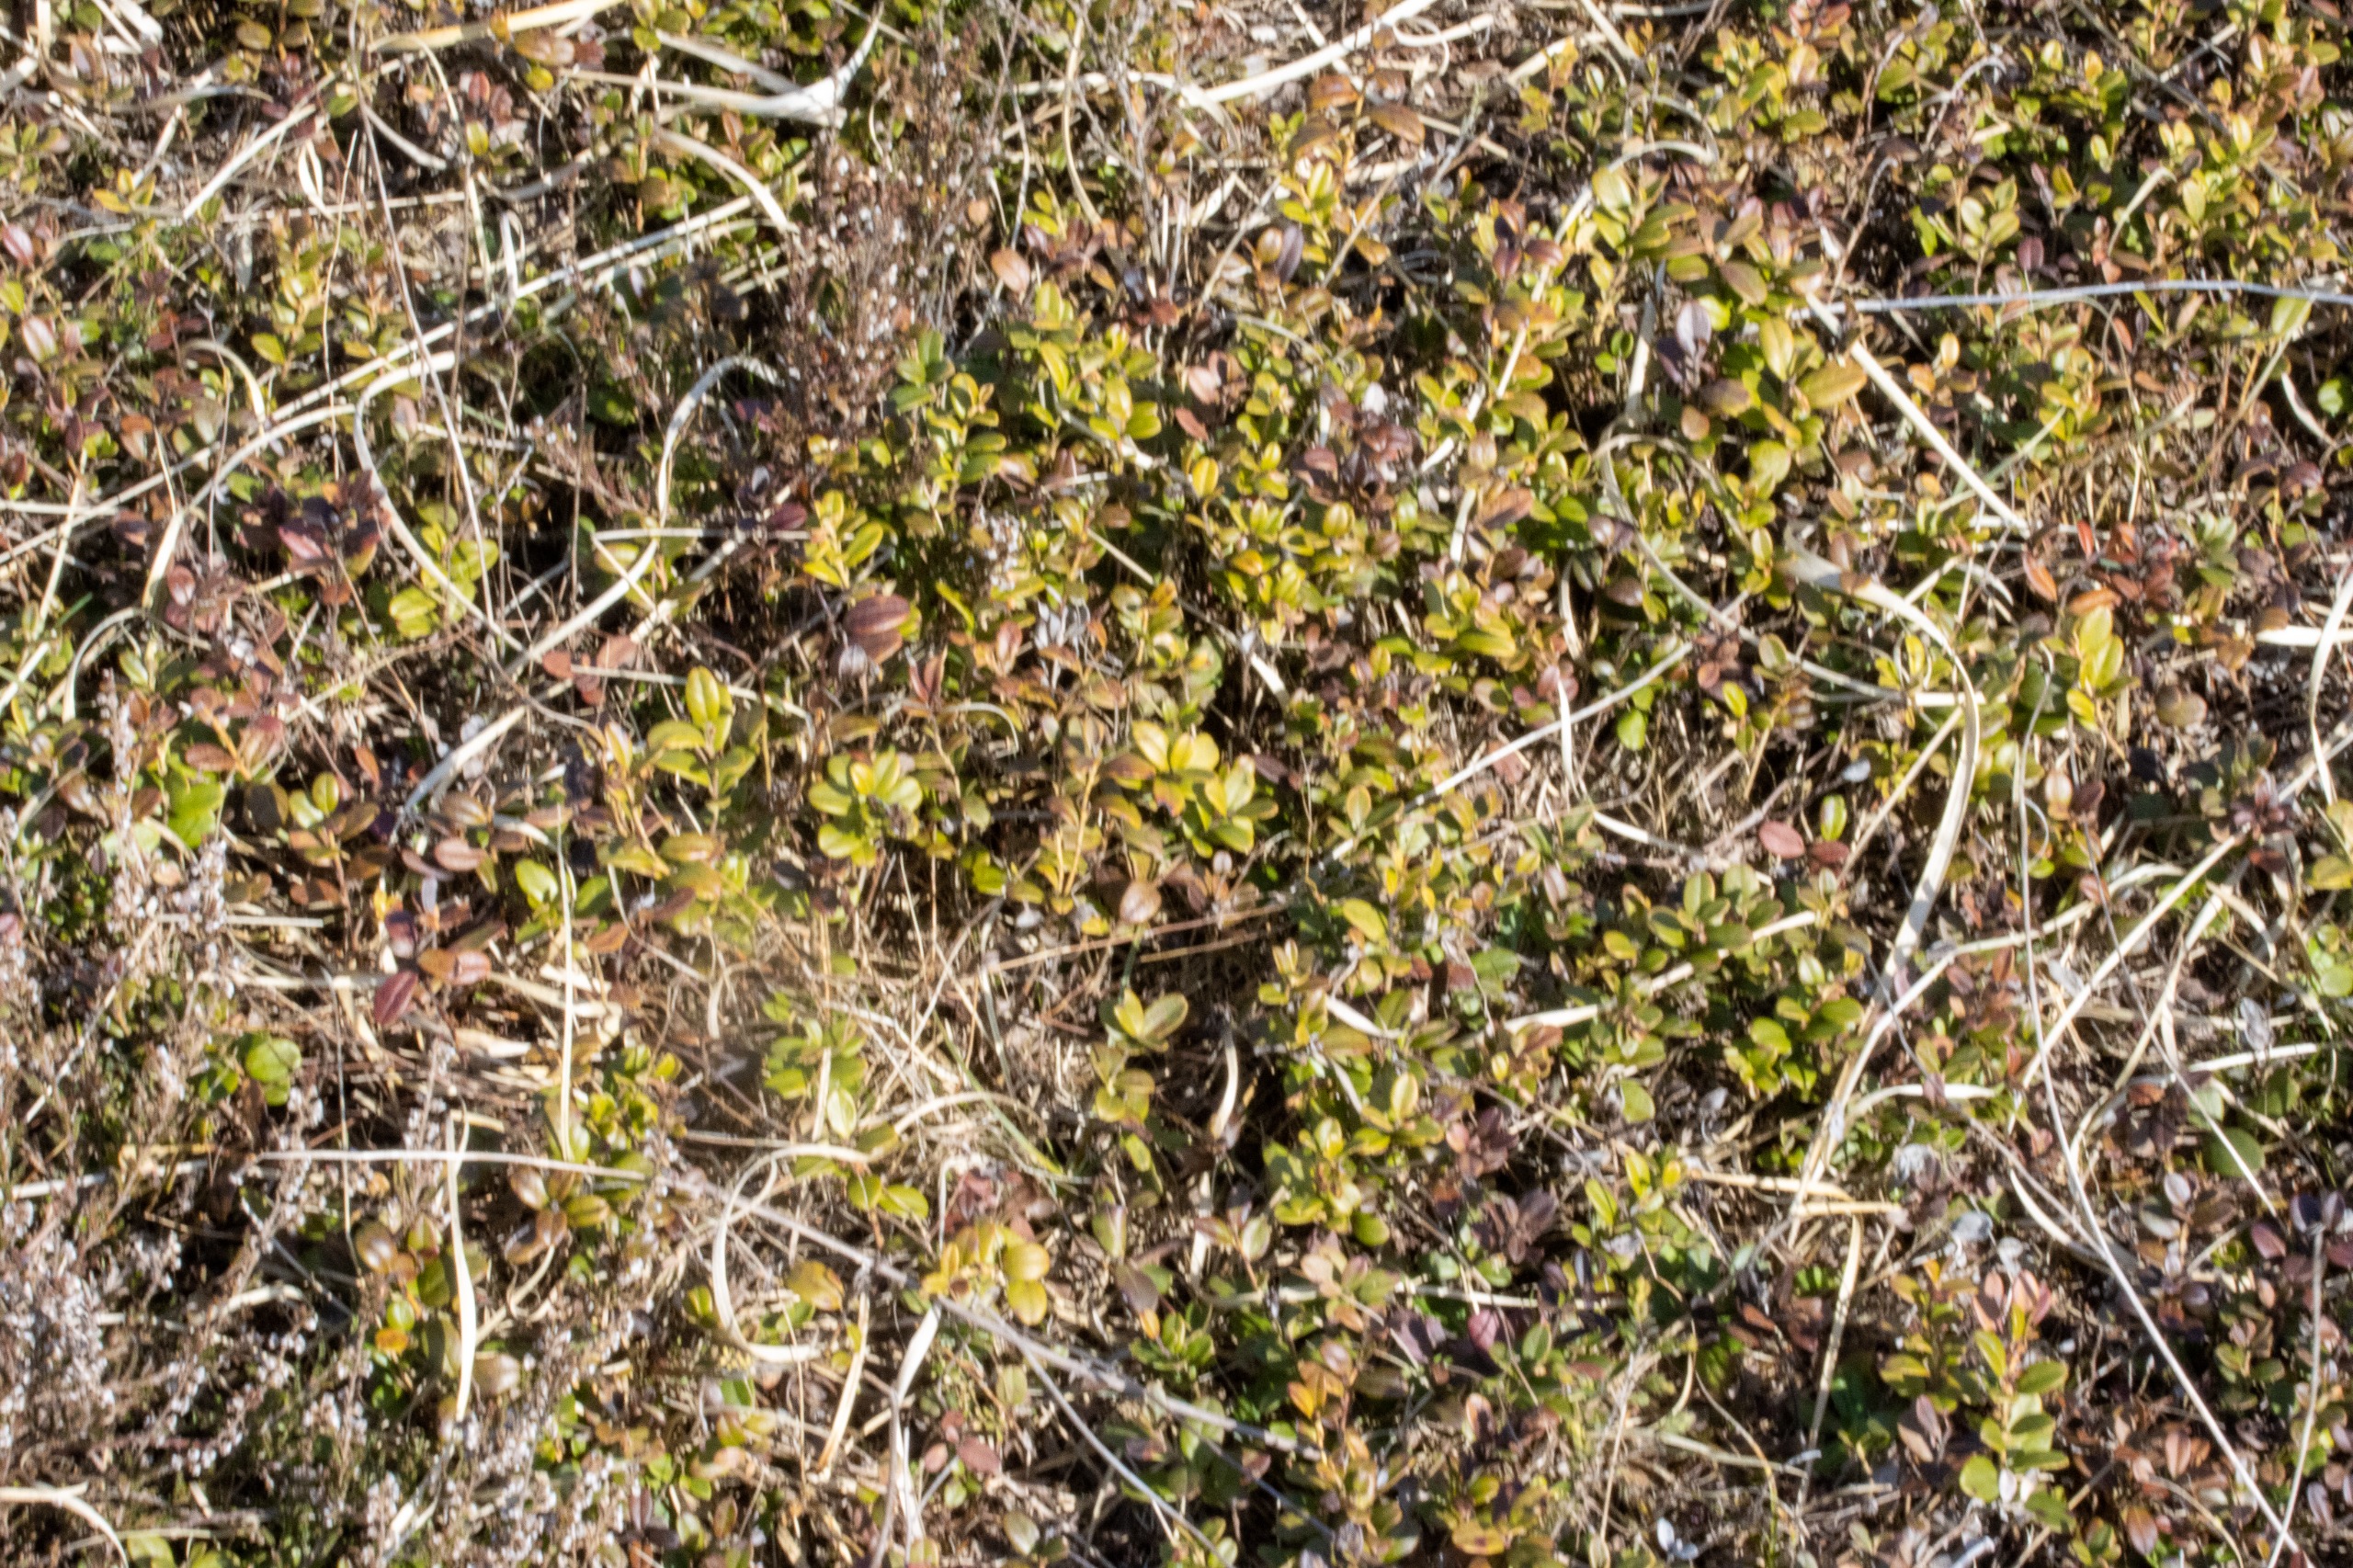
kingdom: Plantae
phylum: Tracheophyta
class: Magnoliopsida
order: Ericales
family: Ericaceae
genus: Vaccinium
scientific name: Vaccinium vitis-idaea
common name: Tyttebær
